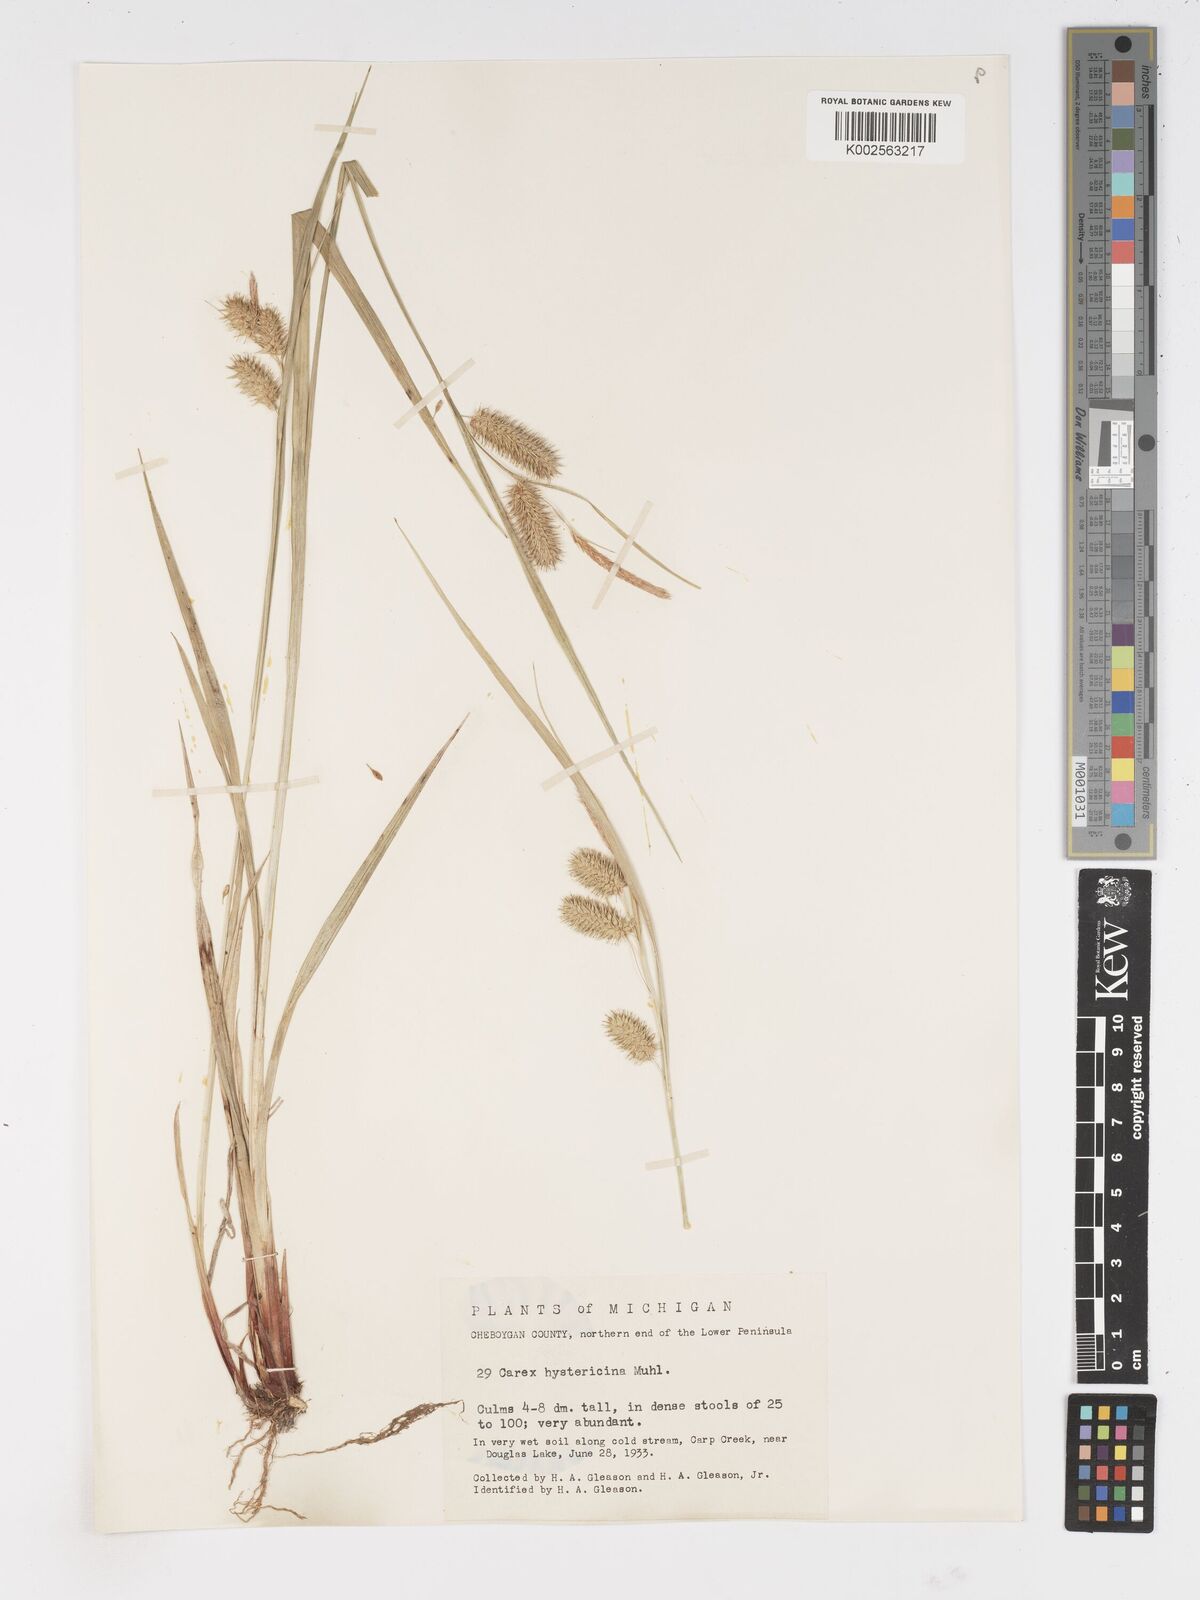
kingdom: Plantae
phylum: Tracheophyta
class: Liliopsida
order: Poales
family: Cyperaceae
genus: Carex
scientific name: Carex hystericina
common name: Bottlebrush sedge
